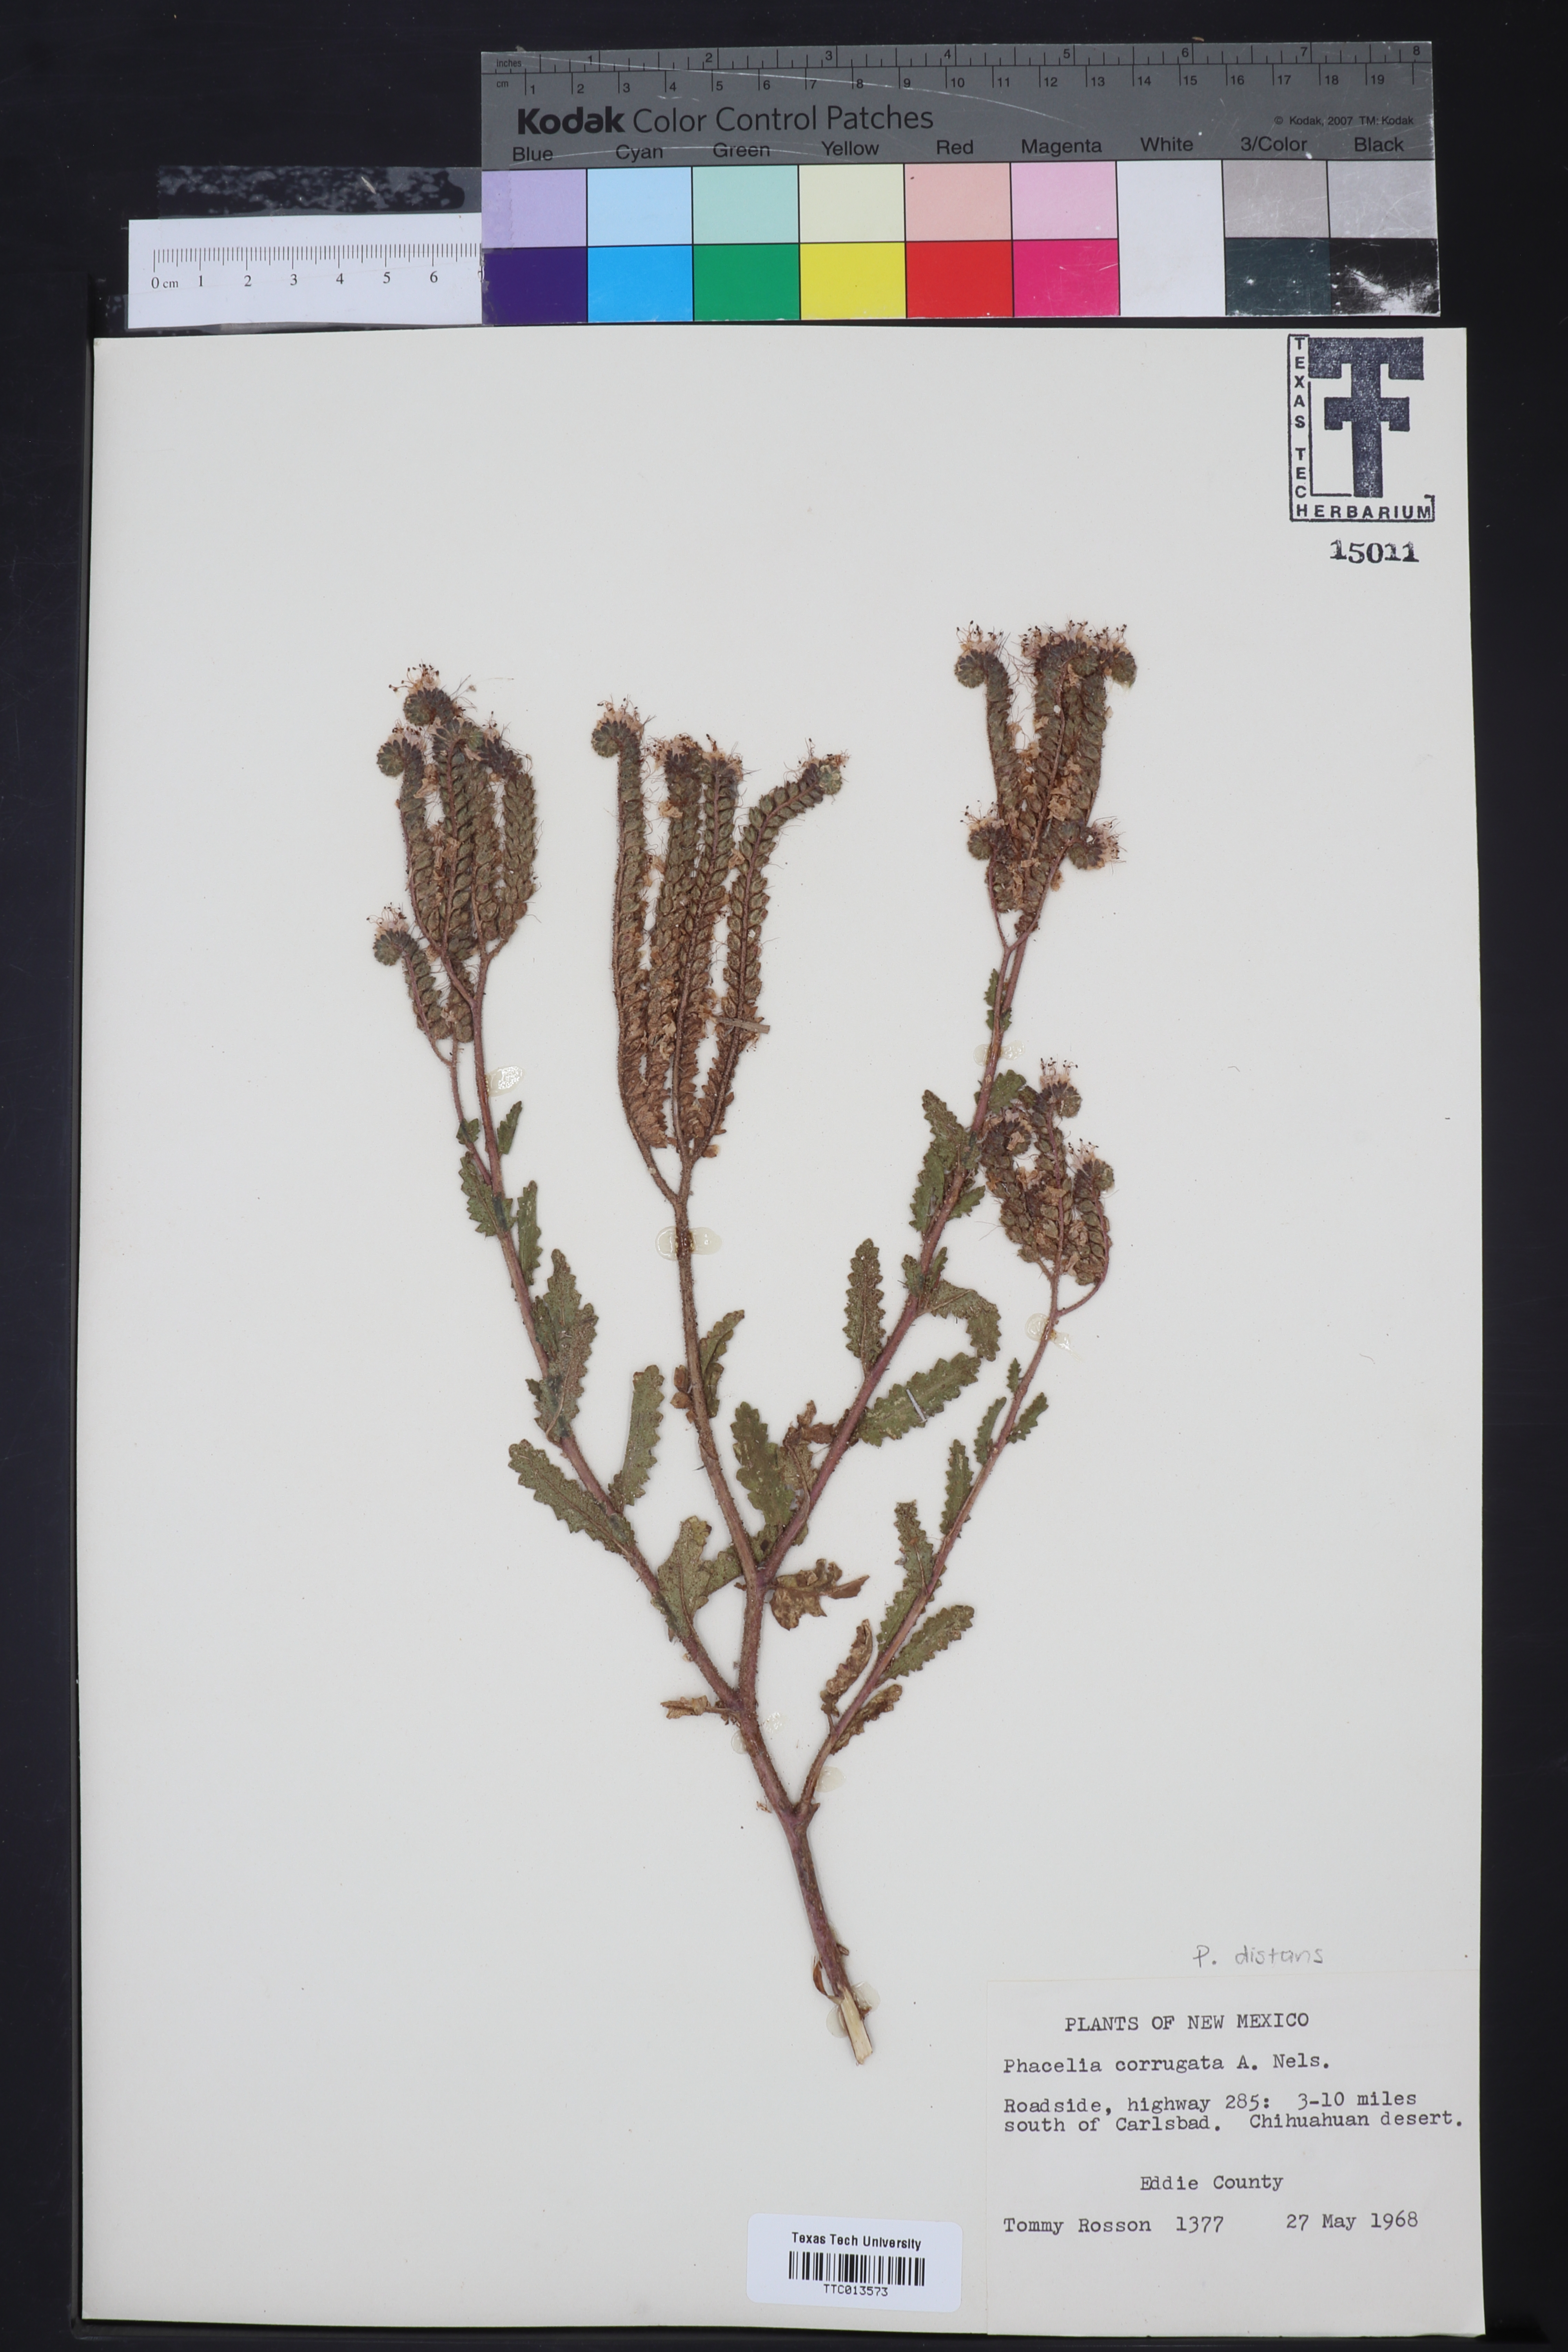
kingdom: Plantae
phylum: Tracheophyta
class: Magnoliopsida
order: Boraginales
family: Hydrophyllaceae
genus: Phacelia
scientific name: Phacelia corrugata
